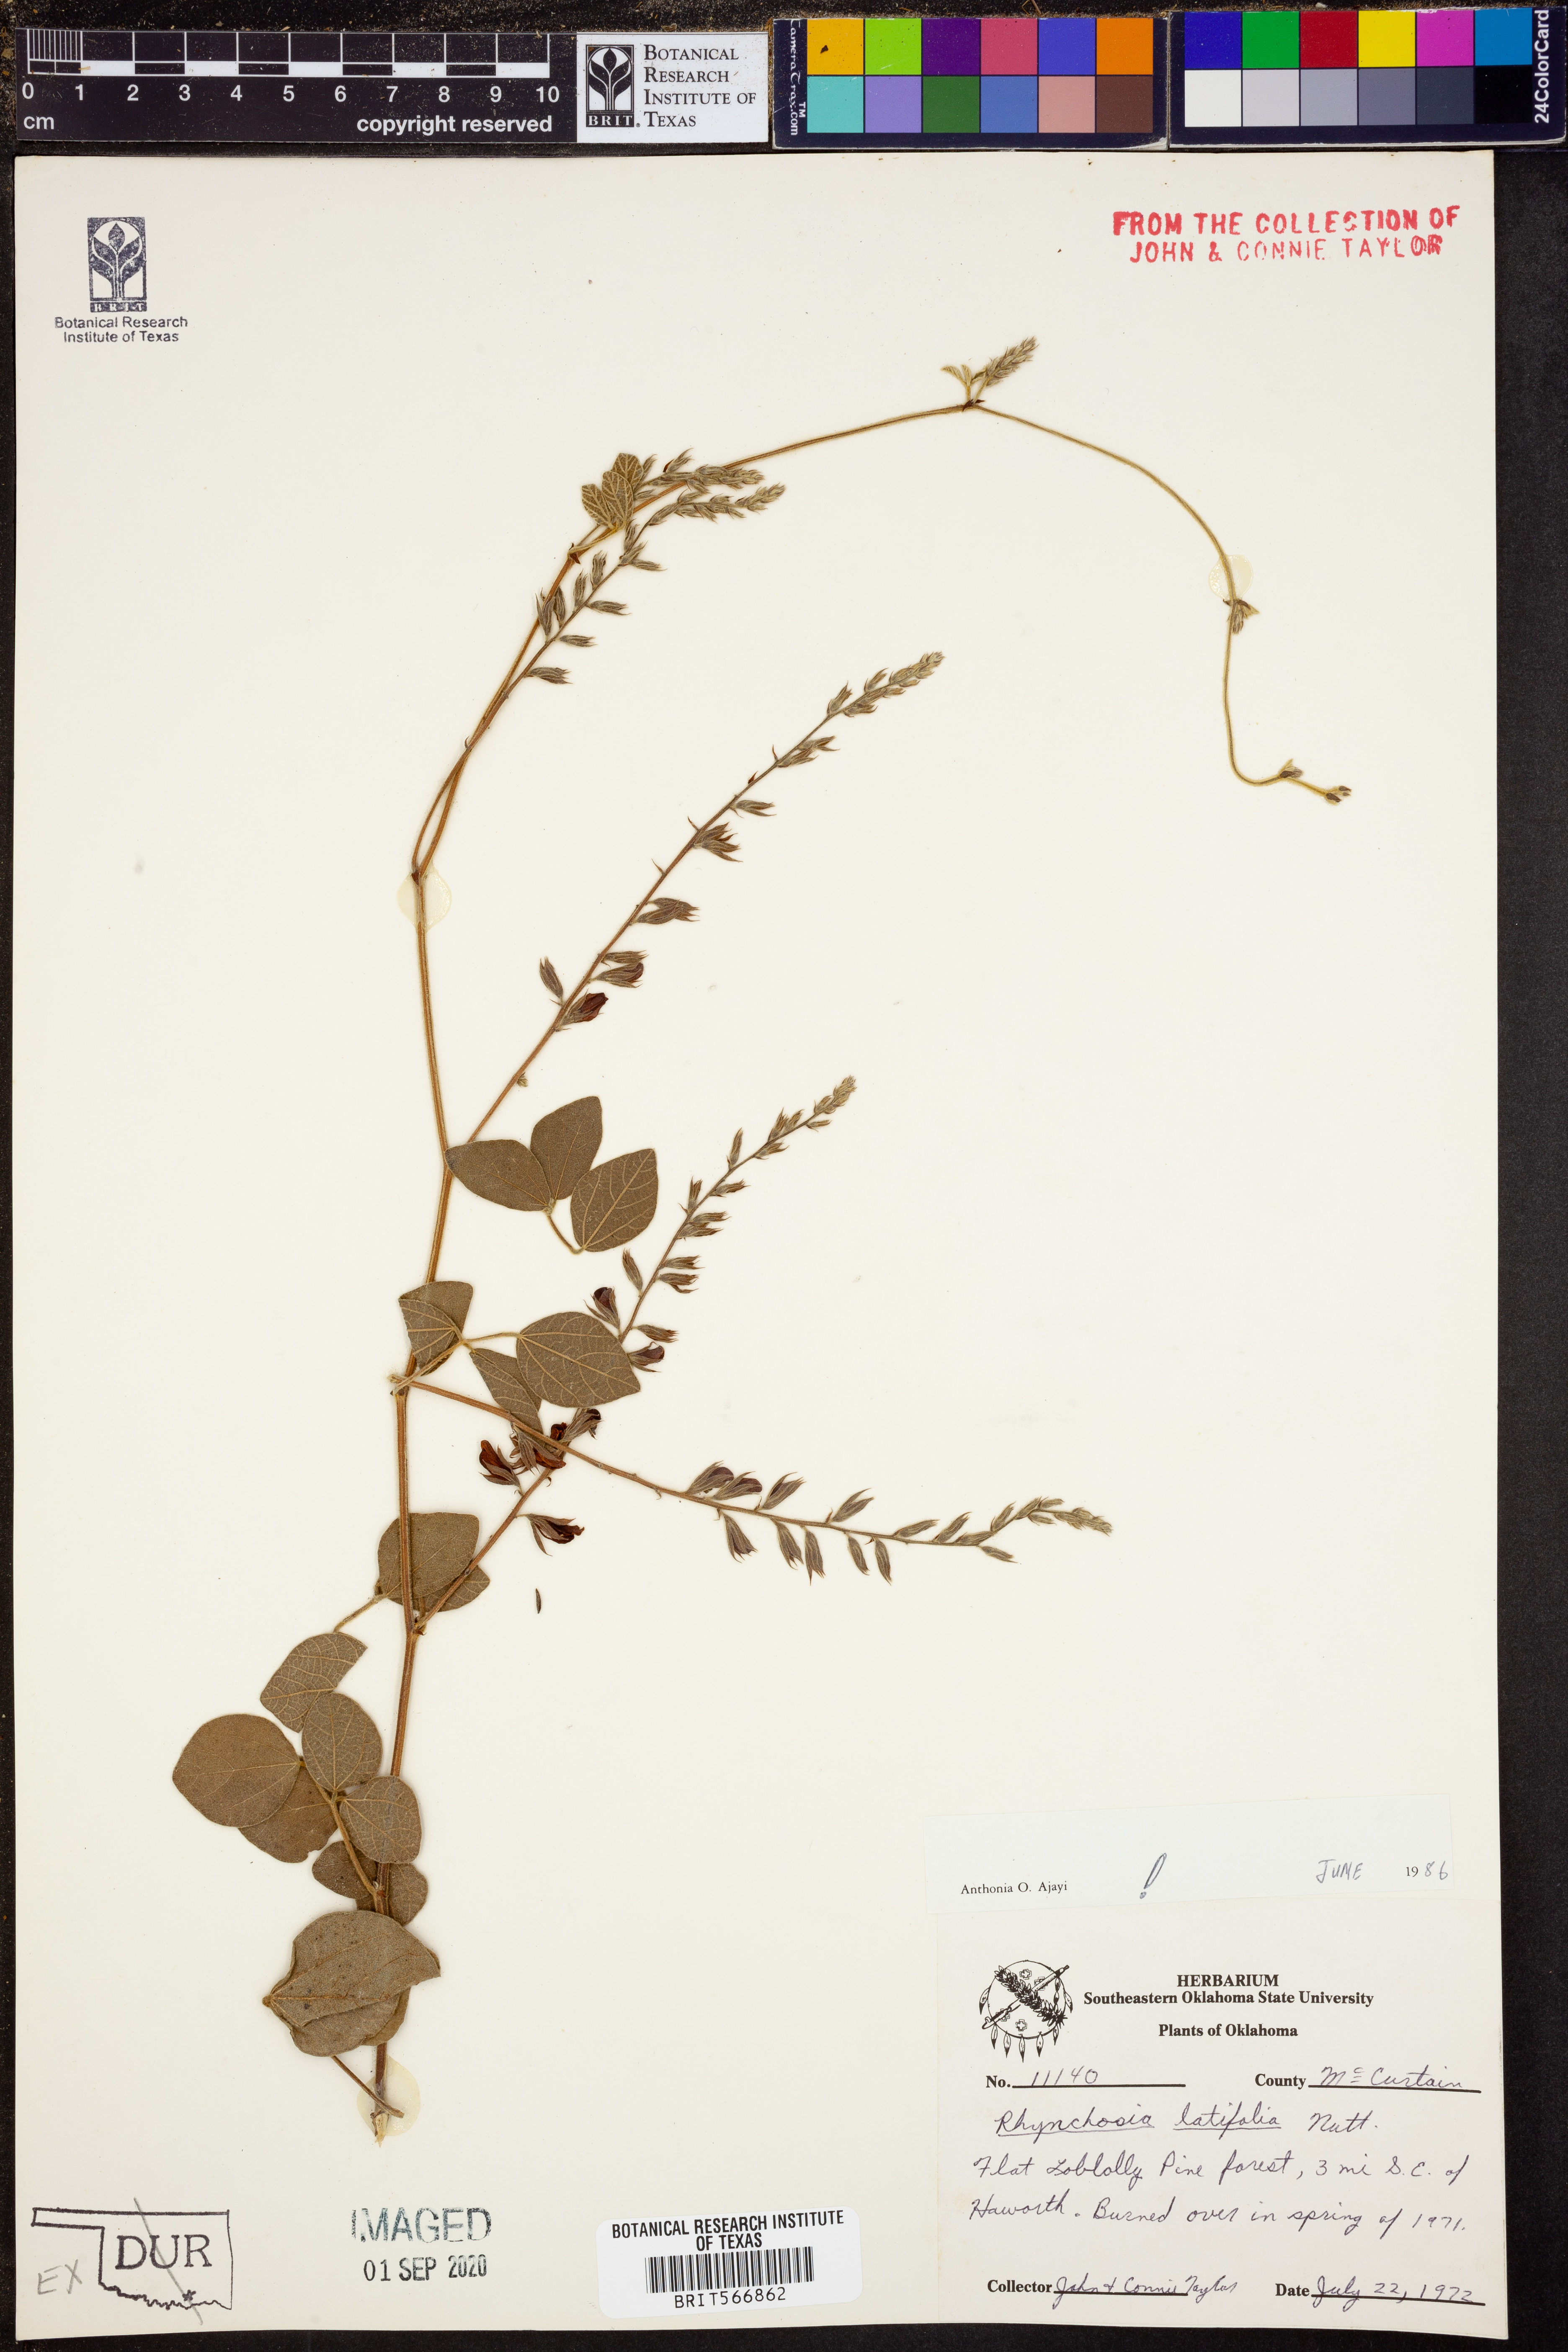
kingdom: Plantae
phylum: Tracheophyta
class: Magnoliopsida
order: Fabales
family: Fabaceae
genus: Rhynchosia
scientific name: Rhynchosia latifolia
